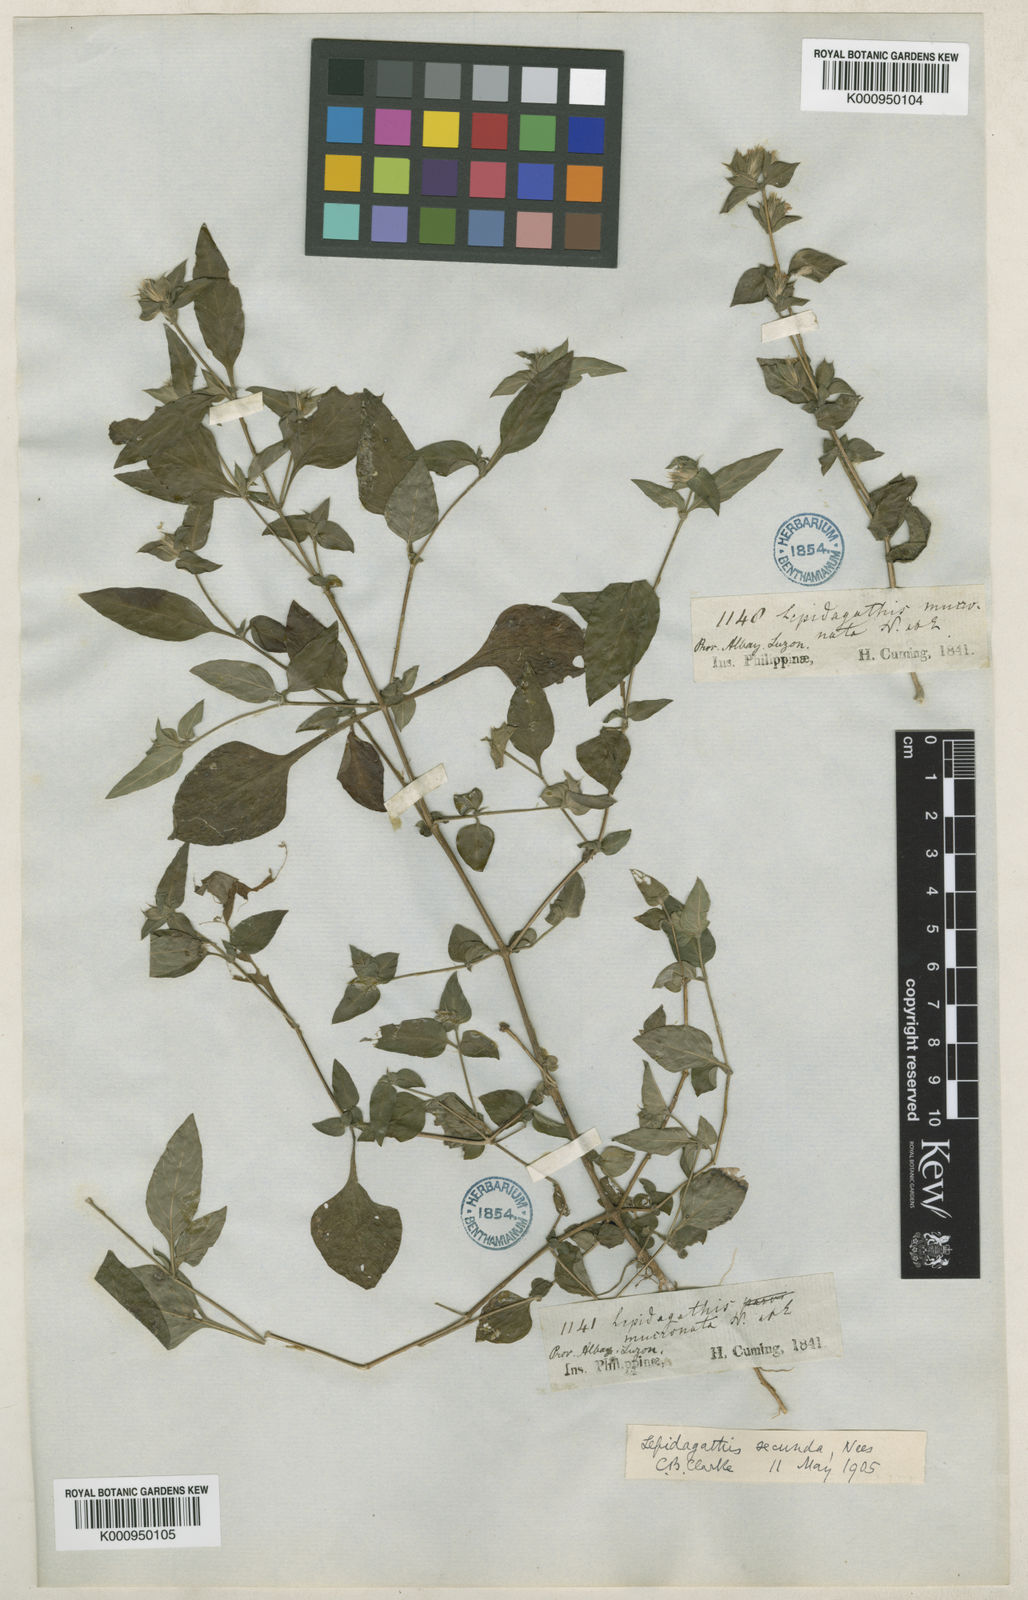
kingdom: Plantae
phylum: Tracheophyta
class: Magnoliopsida
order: Lamiales
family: Acanthaceae
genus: Lepidagathis
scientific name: Lepidagathis secunda
